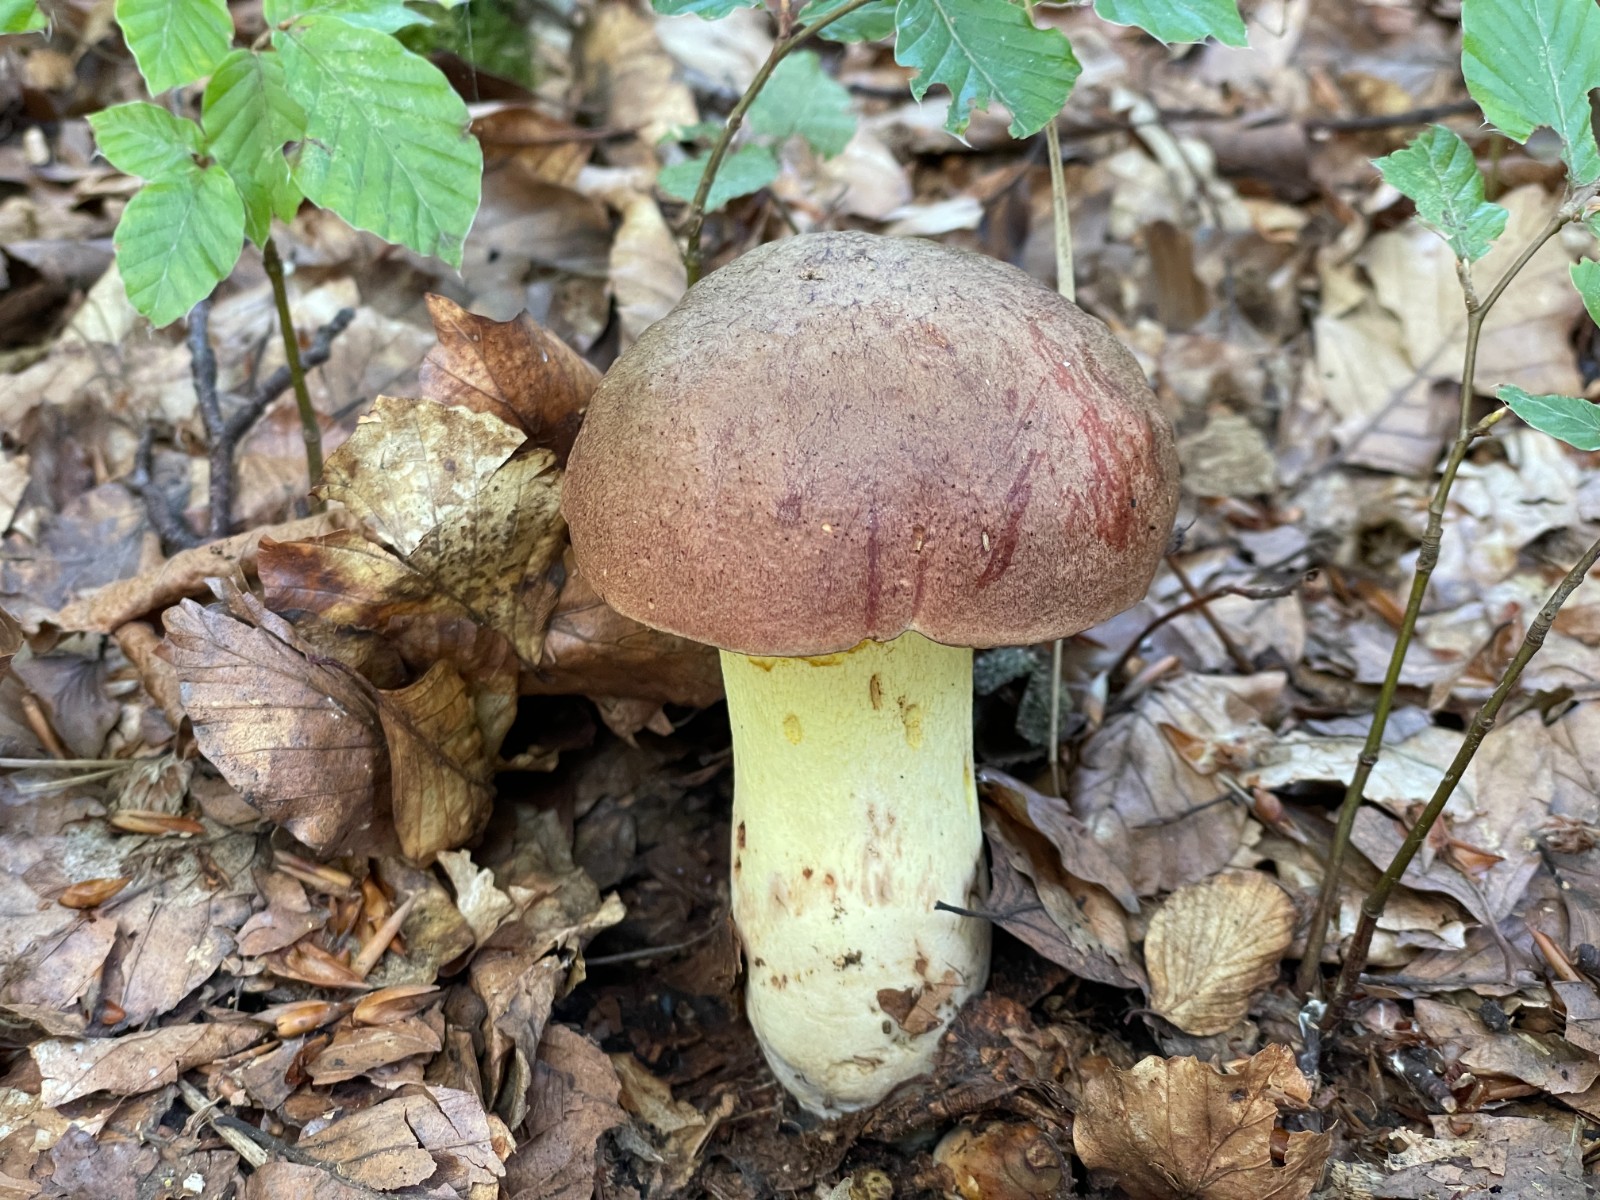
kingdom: Fungi
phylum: Basidiomycota
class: Agaricomycetes
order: Boletales
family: Boletaceae
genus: Butyriboletus
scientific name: Butyriboletus appendiculatus
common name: tenstokket rørhat
